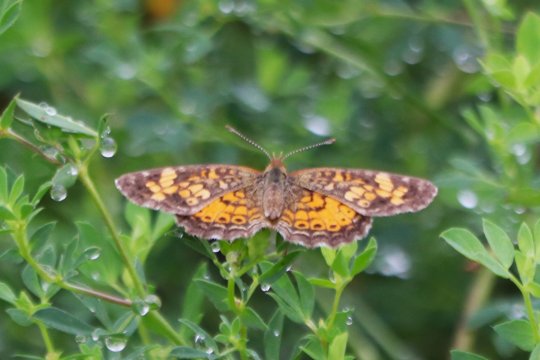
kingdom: Animalia
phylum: Arthropoda
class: Insecta
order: Lepidoptera
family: Nymphalidae
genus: Phyciodes
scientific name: Phyciodes tharos
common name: Northern Crescent
